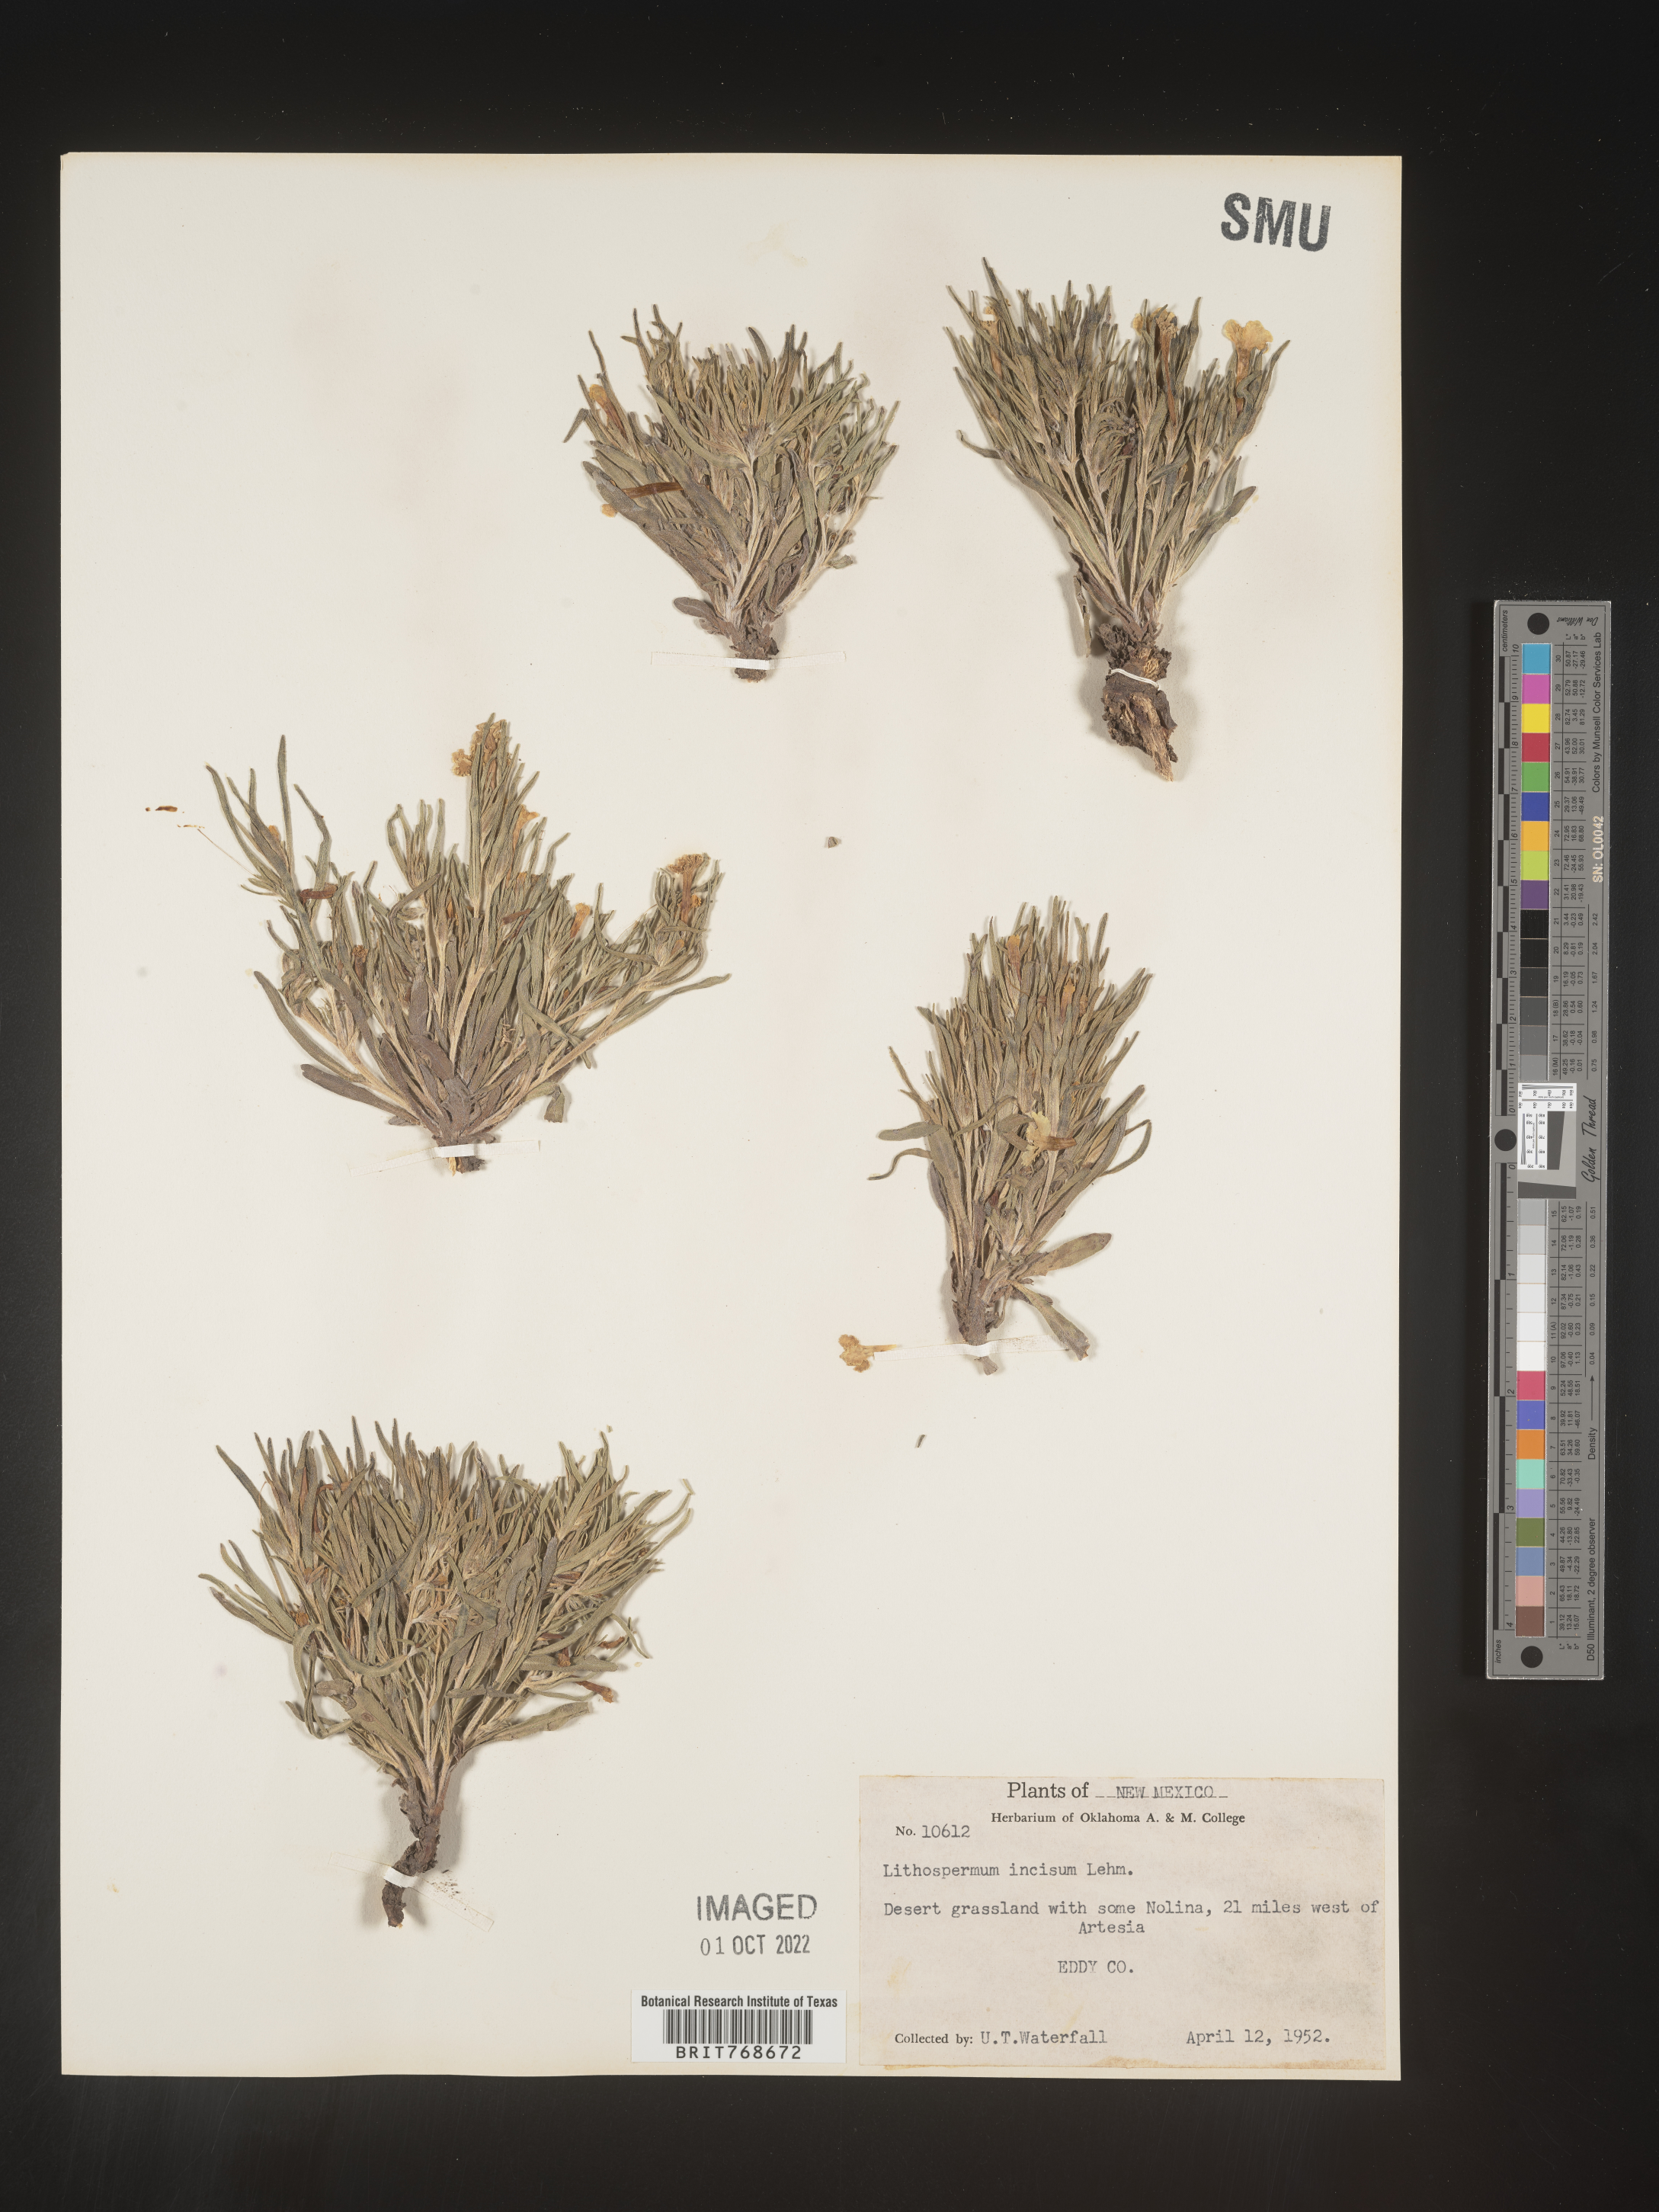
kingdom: Plantae
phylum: Tracheophyta
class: Magnoliopsida
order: Boraginales
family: Boraginaceae
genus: Lithospermum
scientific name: Lithospermum incisum
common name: Fringed gromwell
